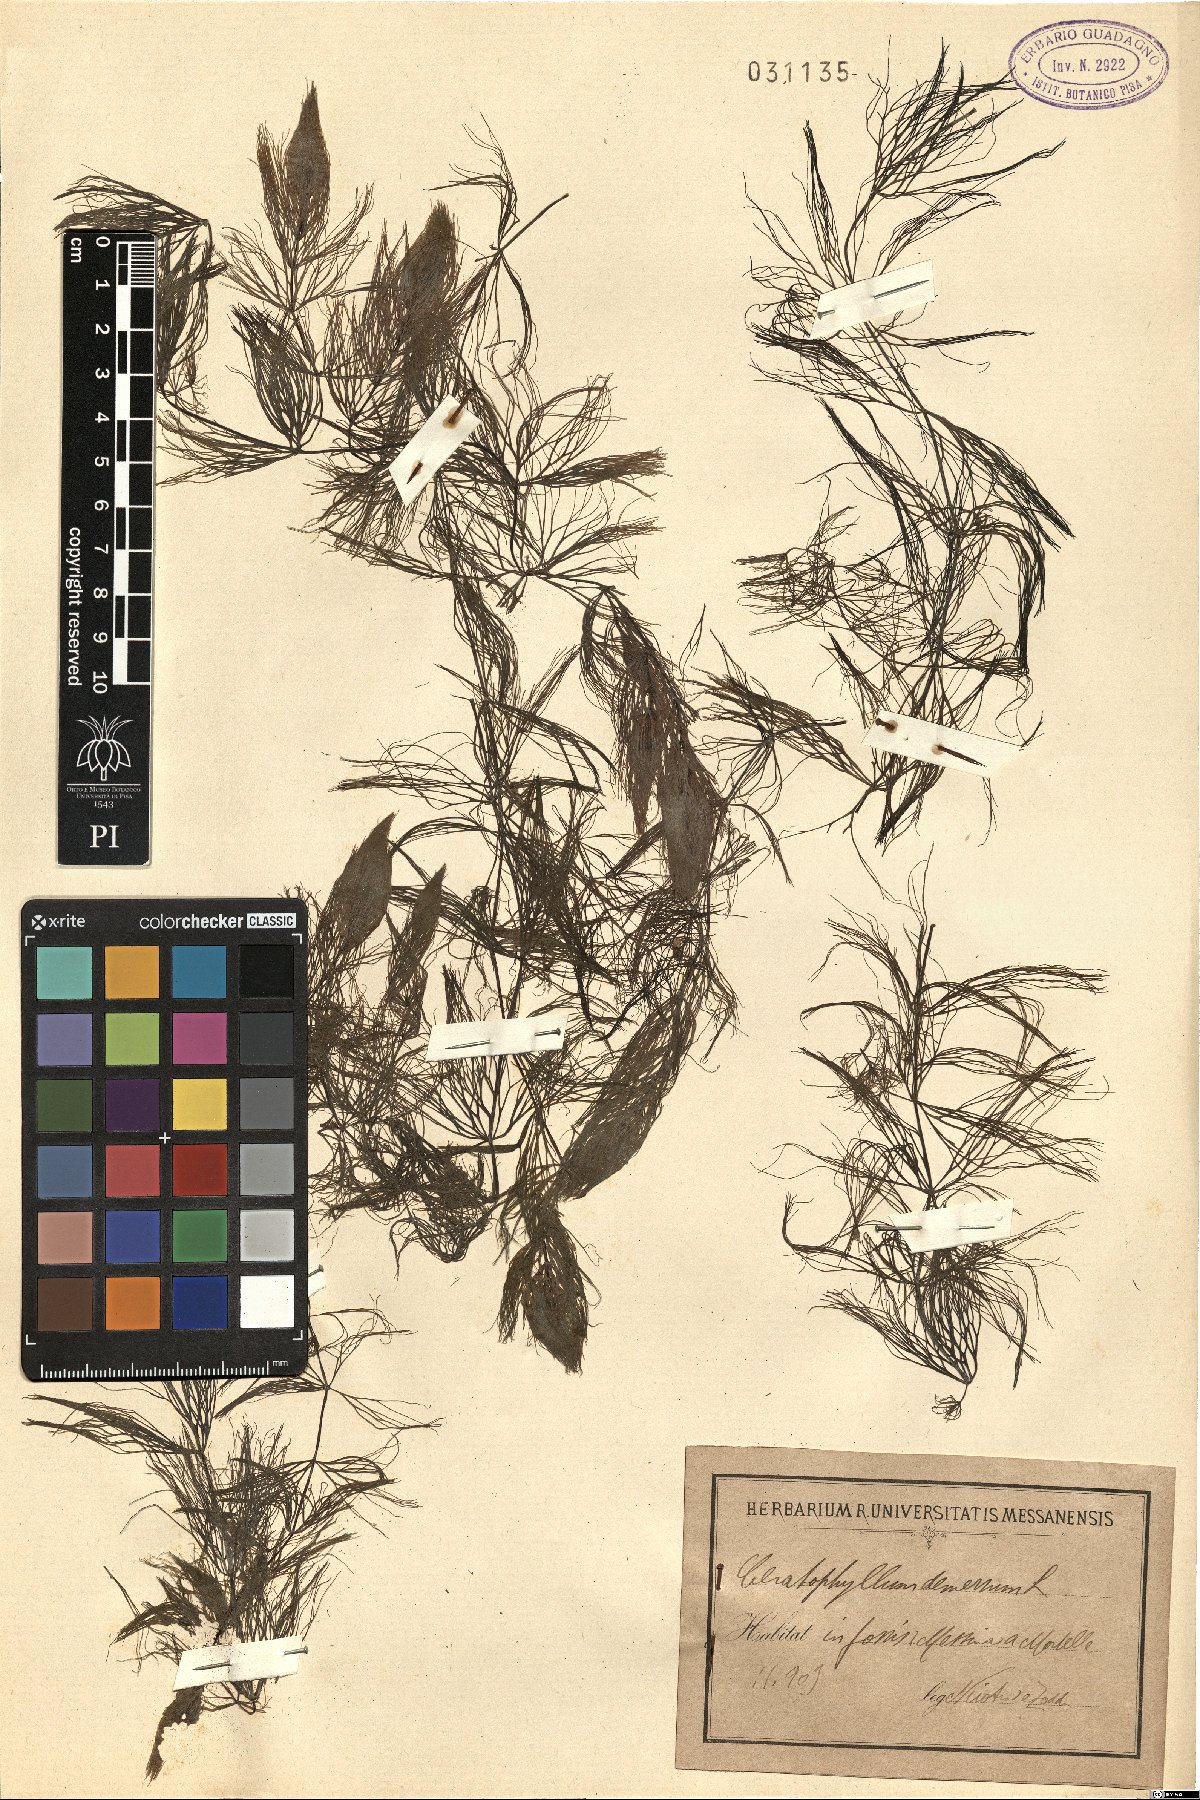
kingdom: Plantae
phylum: Tracheophyta
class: Magnoliopsida
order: Ceratophyllales
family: Ceratophyllaceae
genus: Ceratophyllum
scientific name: Ceratophyllum demersum
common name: Rigid hornwort
